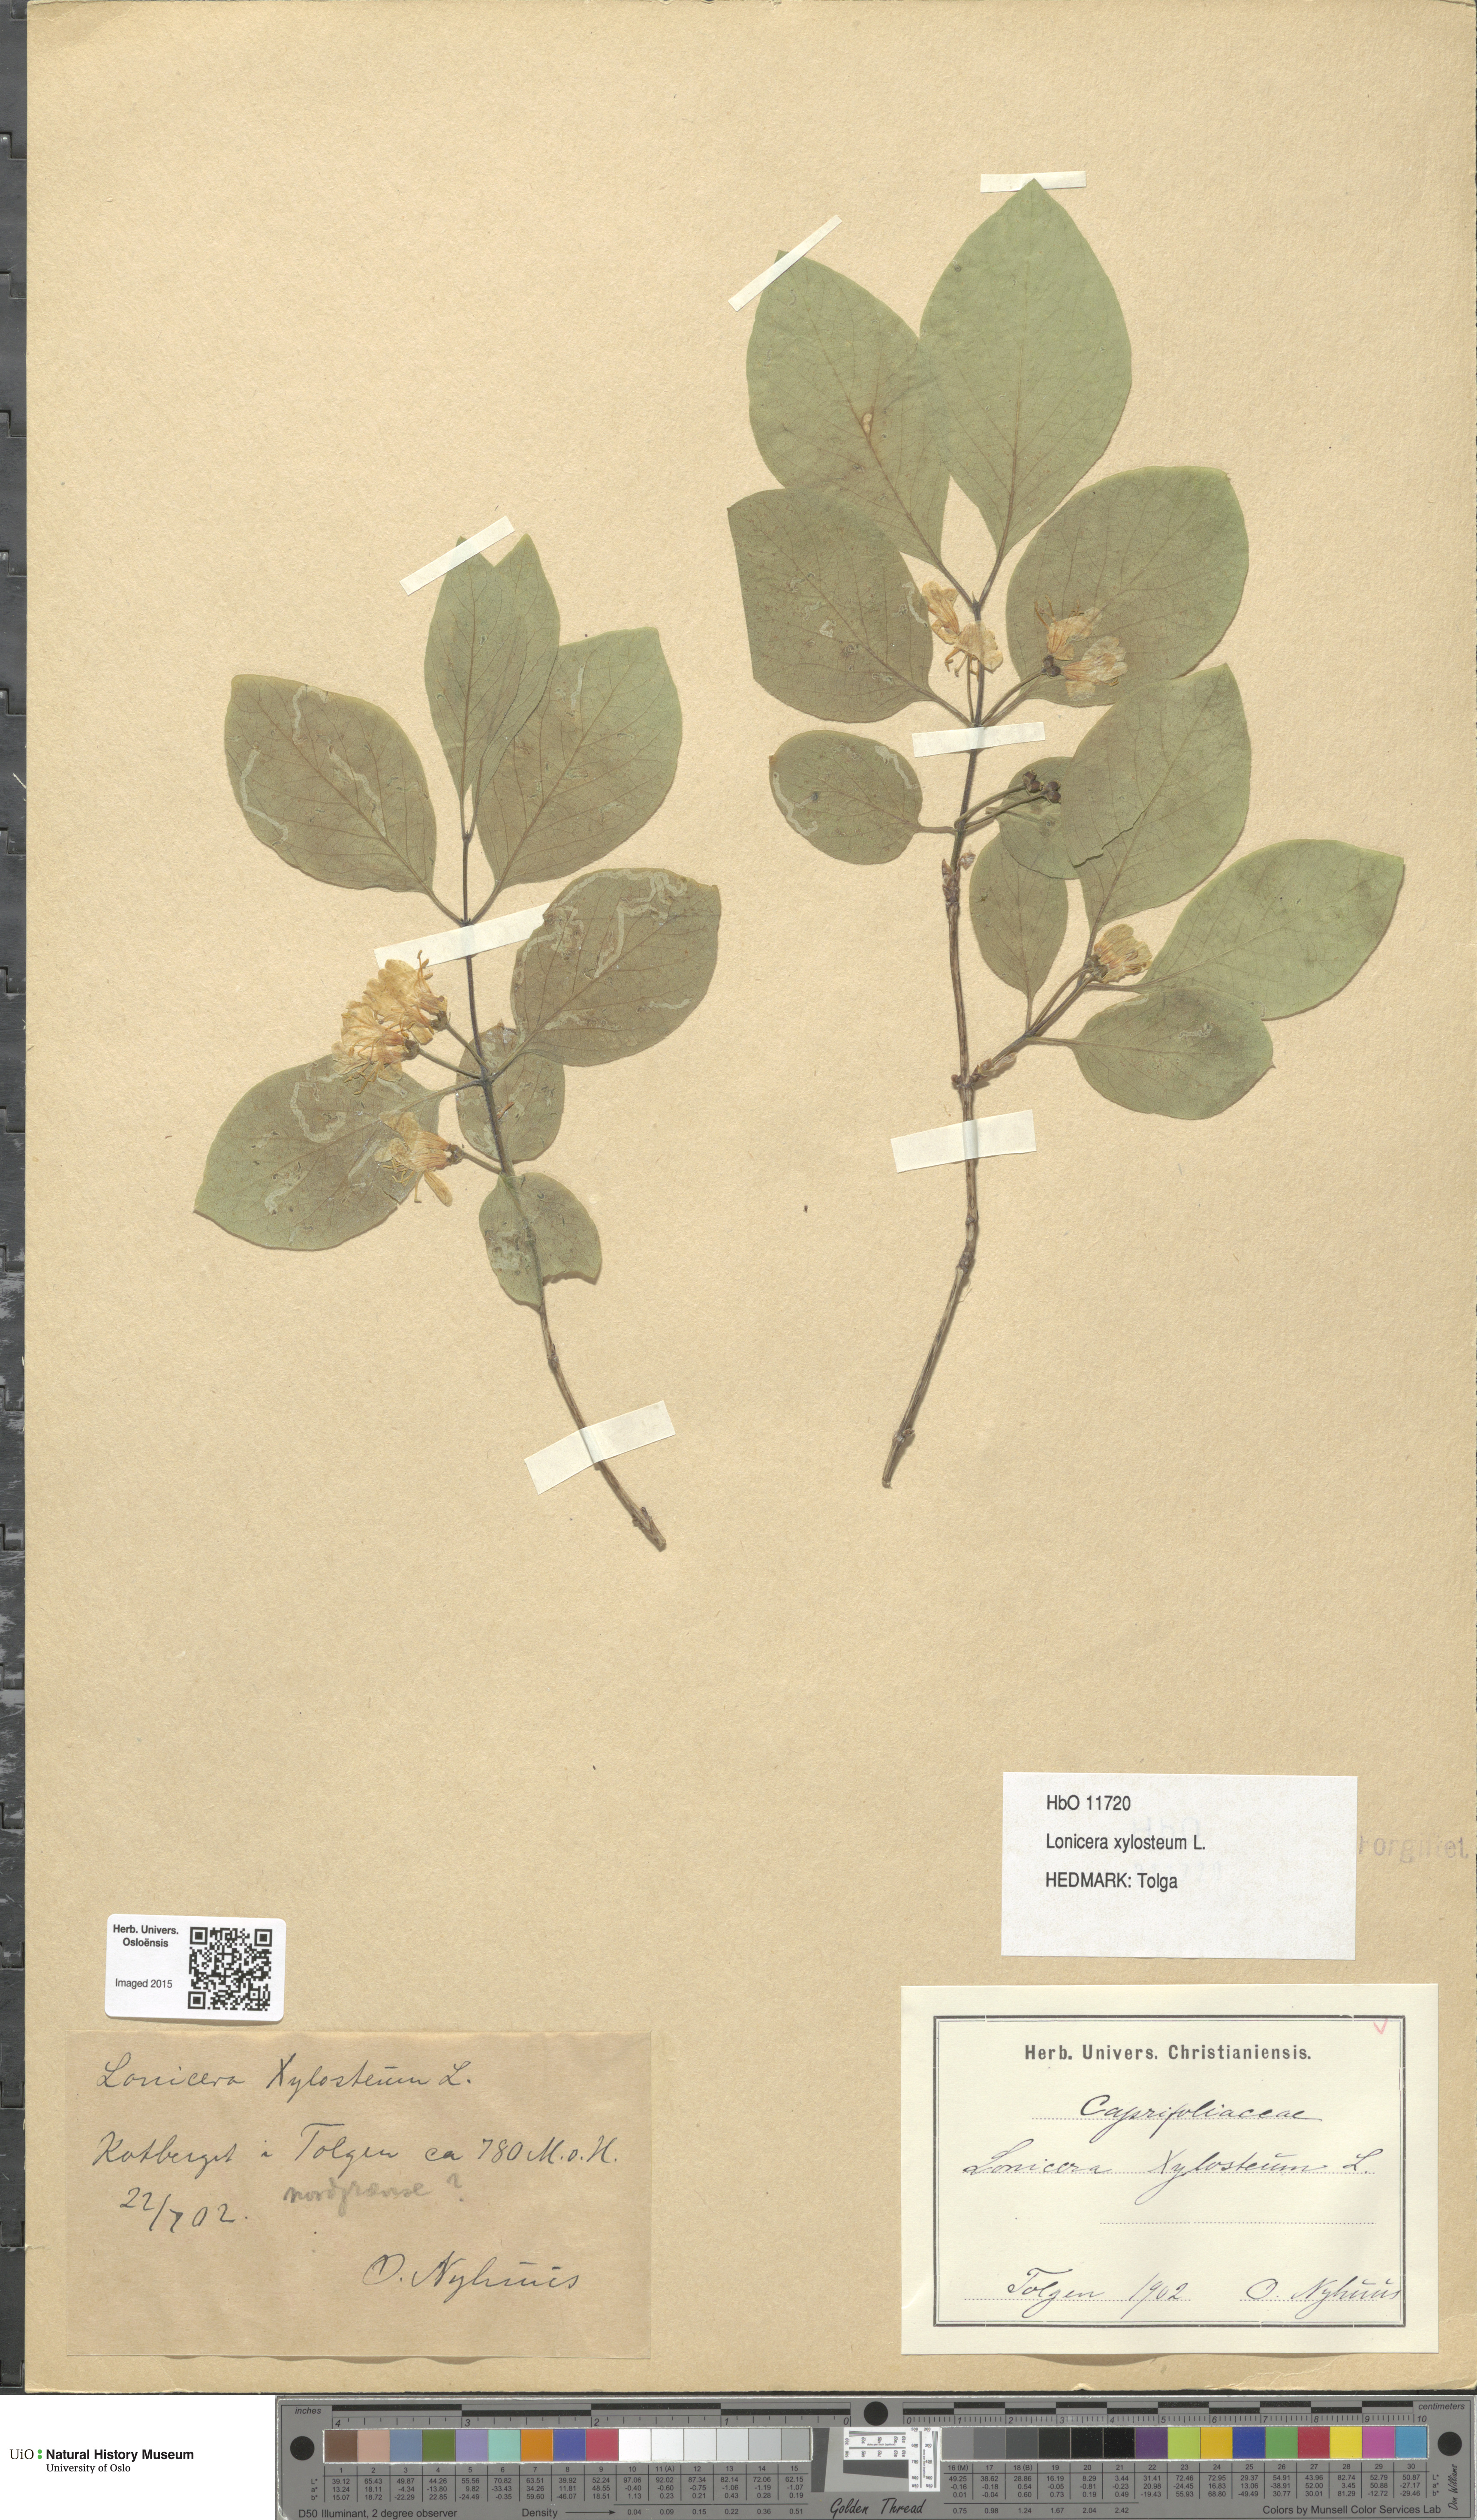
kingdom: Plantae
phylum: Tracheophyta
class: Magnoliopsida
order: Dipsacales
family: Caprifoliaceae
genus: Lonicera
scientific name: Lonicera xylosteum
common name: Fly honeysuckle
